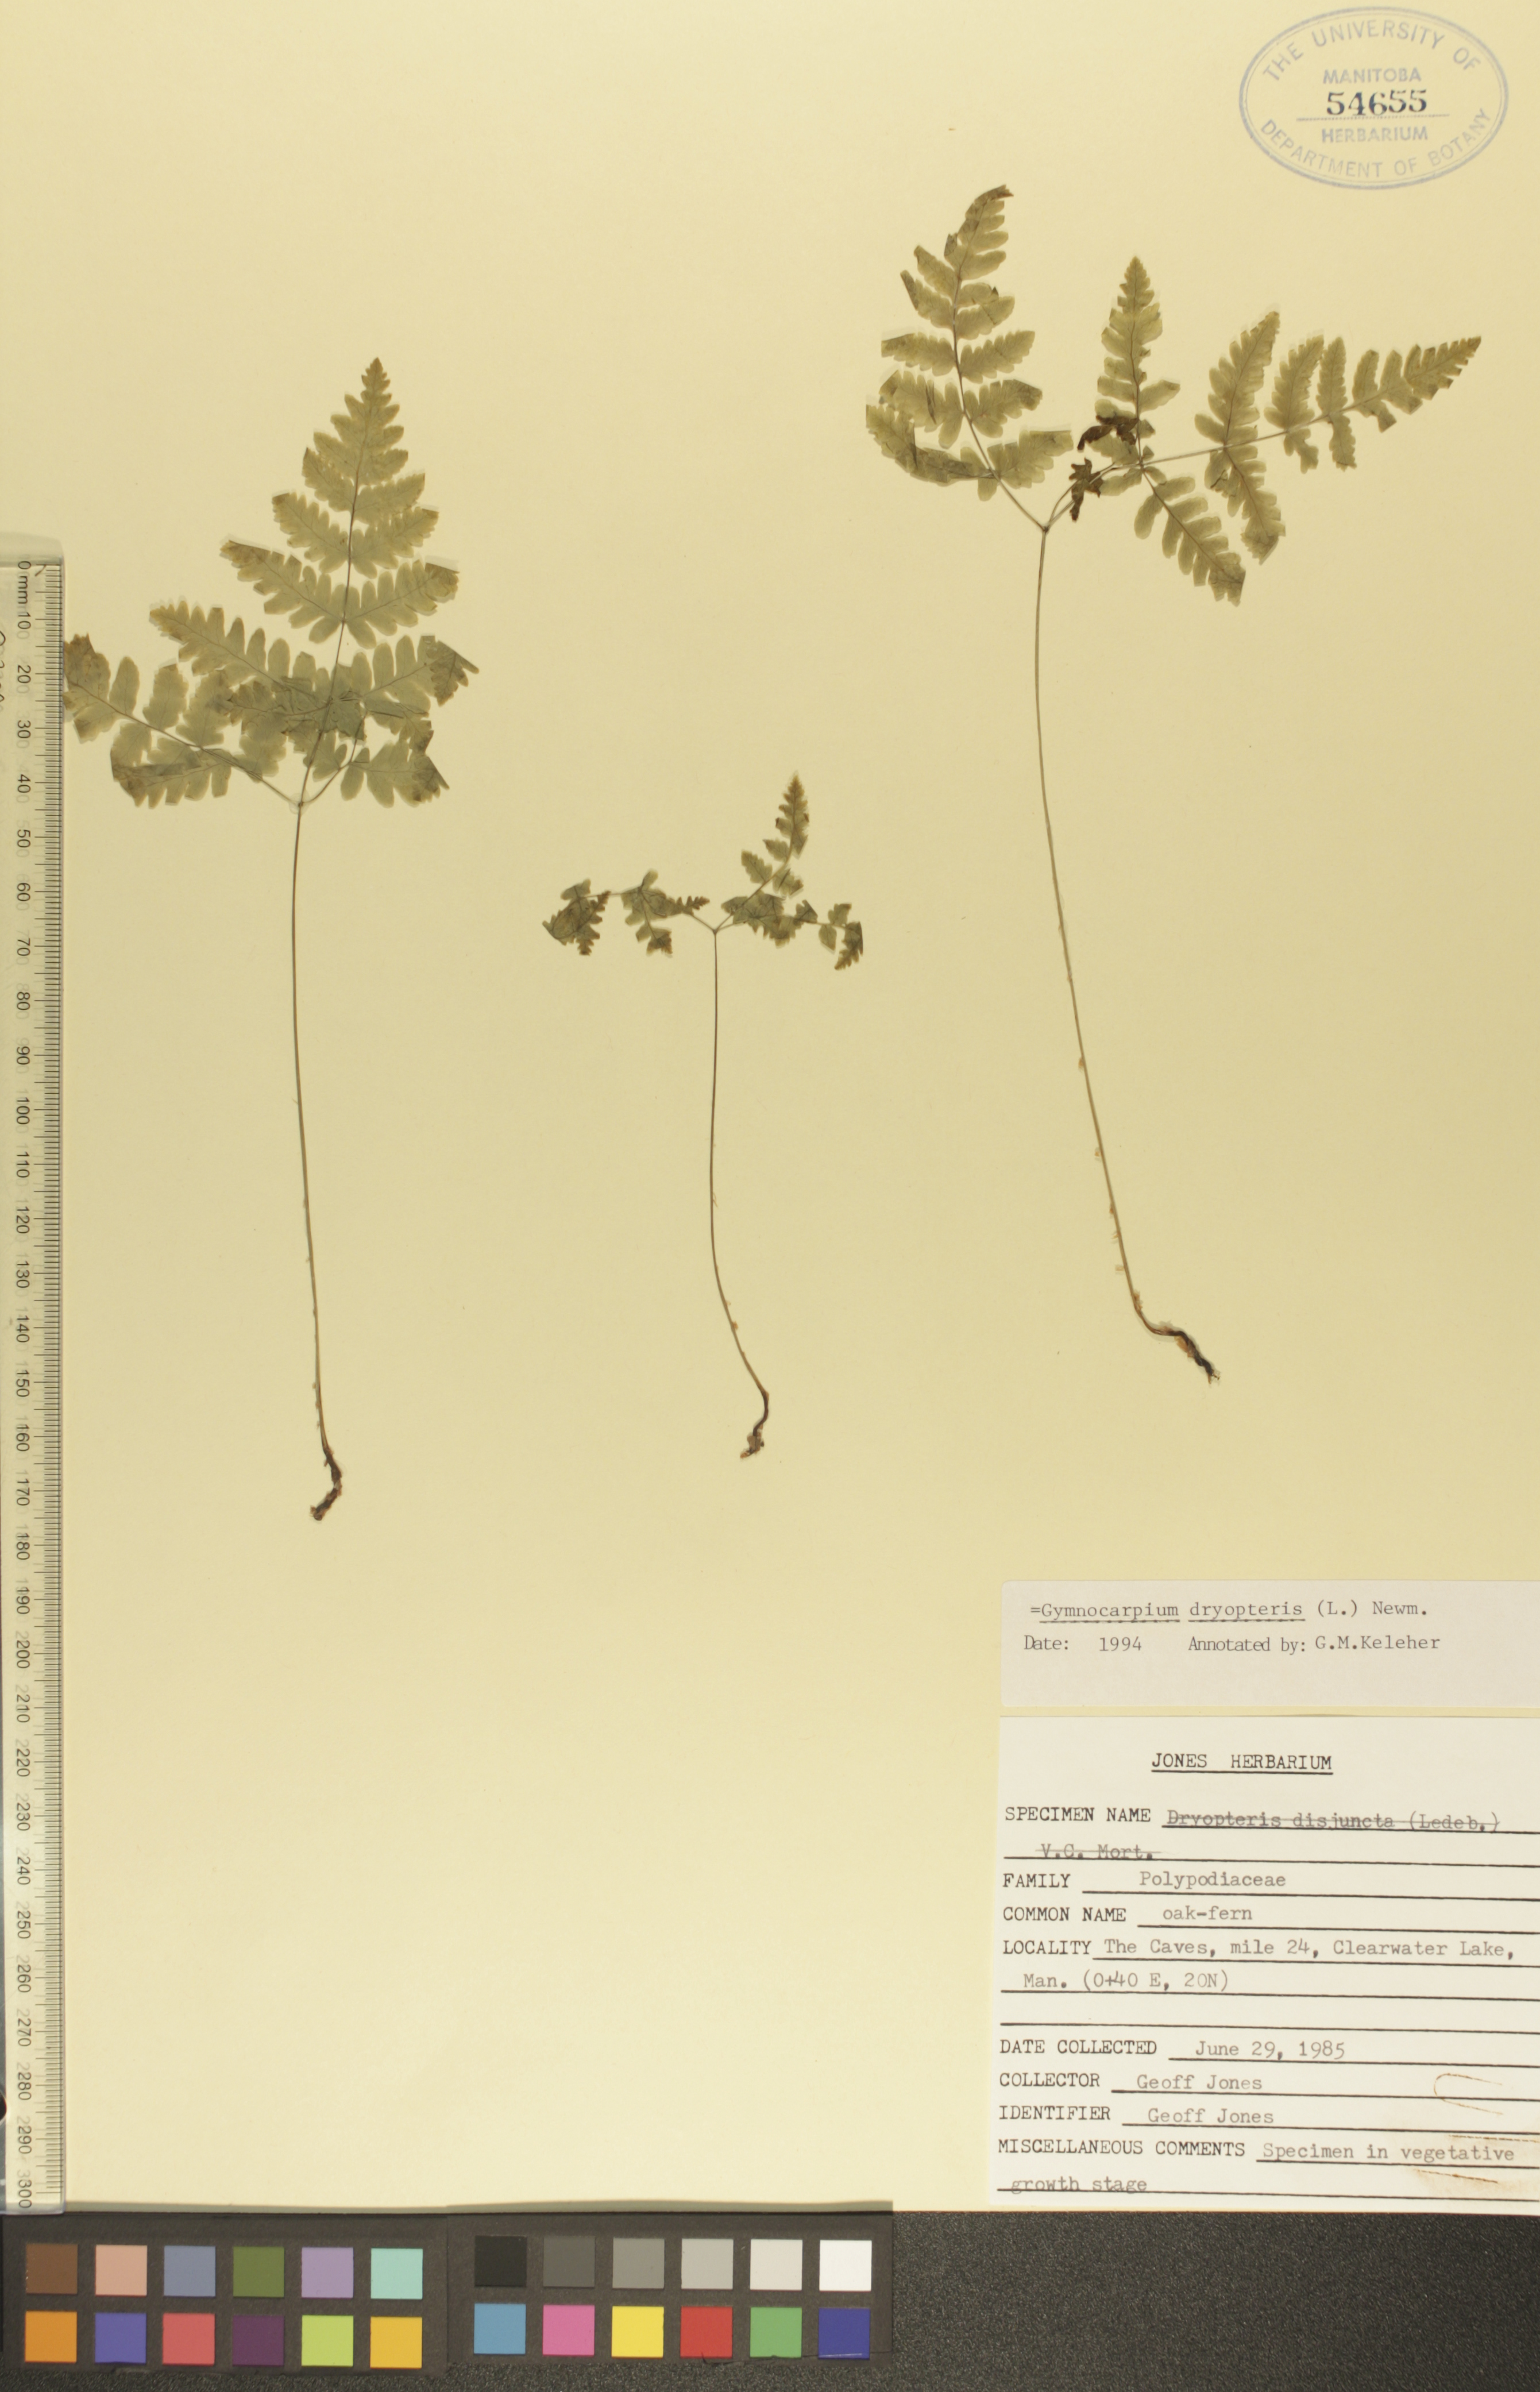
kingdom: Plantae
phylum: Tracheophyta
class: Polypodiopsida
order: Polypodiales
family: Cystopteridaceae
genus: Gymnocarpium
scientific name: Gymnocarpium dryopteris
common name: Oak fern
